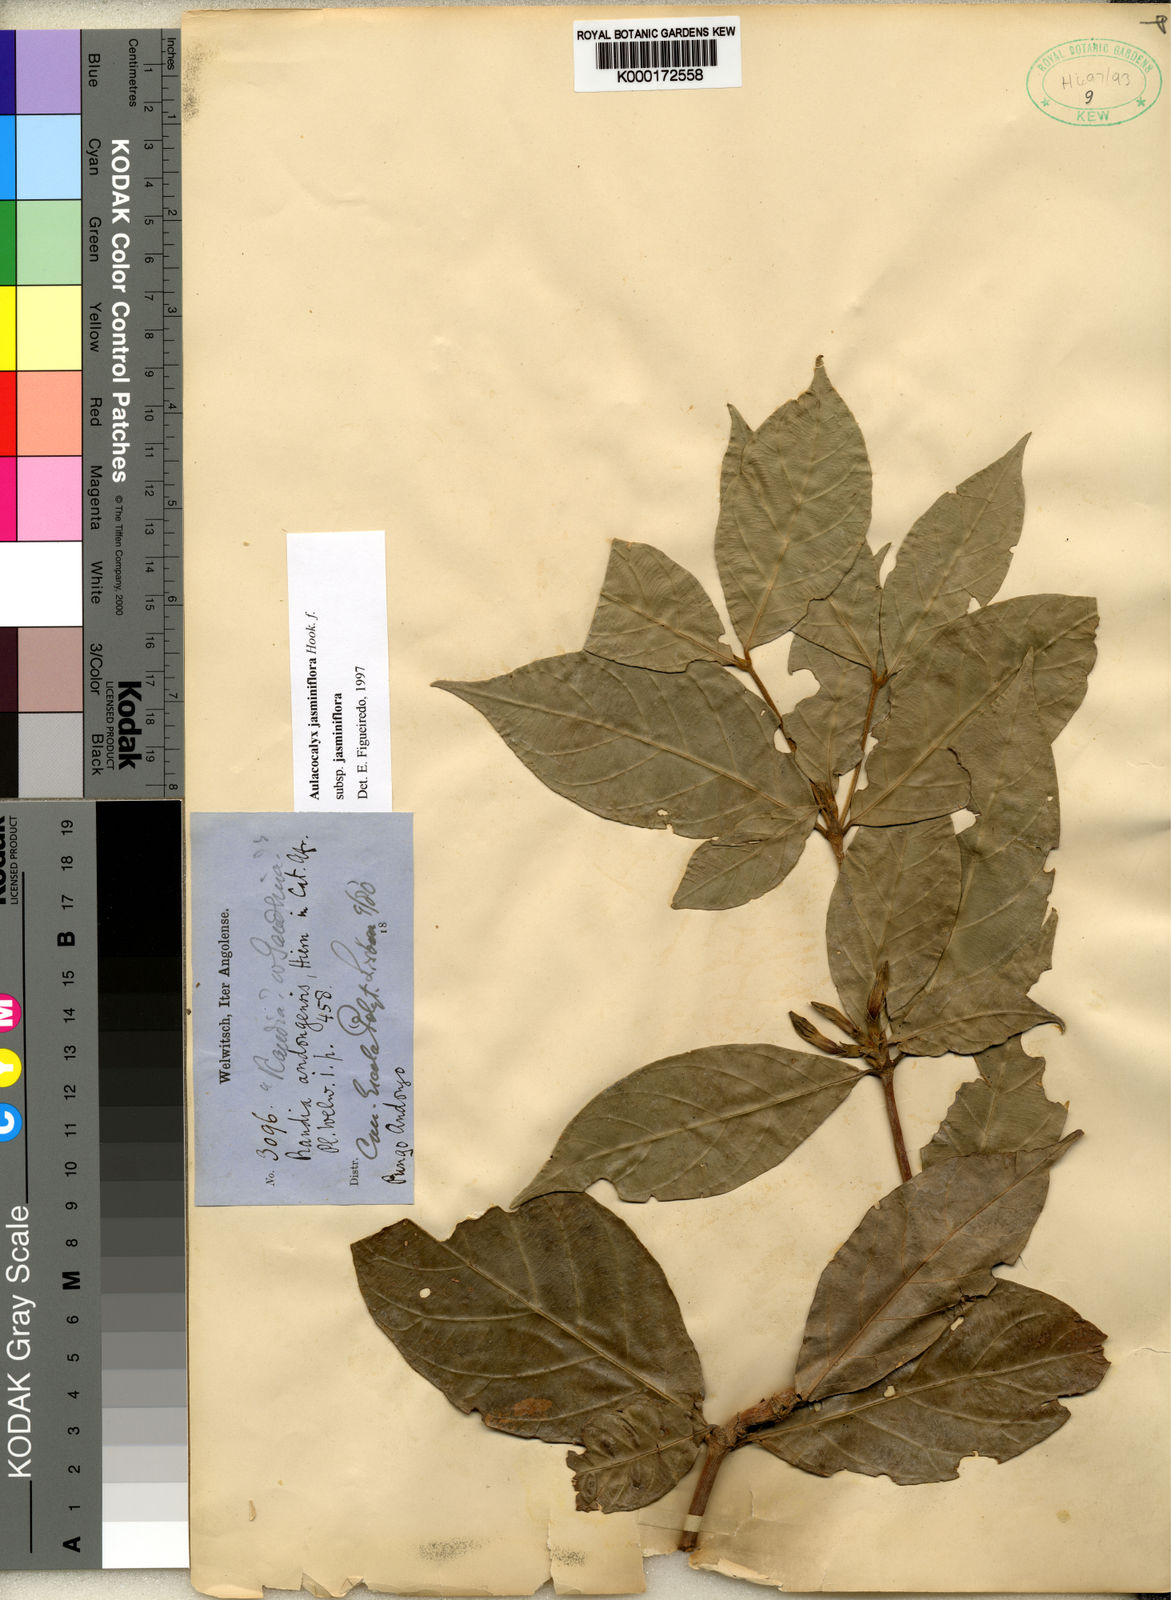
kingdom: Plantae
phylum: Tracheophyta
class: Magnoliopsida
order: Gentianales
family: Rubiaceae
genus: Aulacocalyx
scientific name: Aulacocalyx jasminiflora
